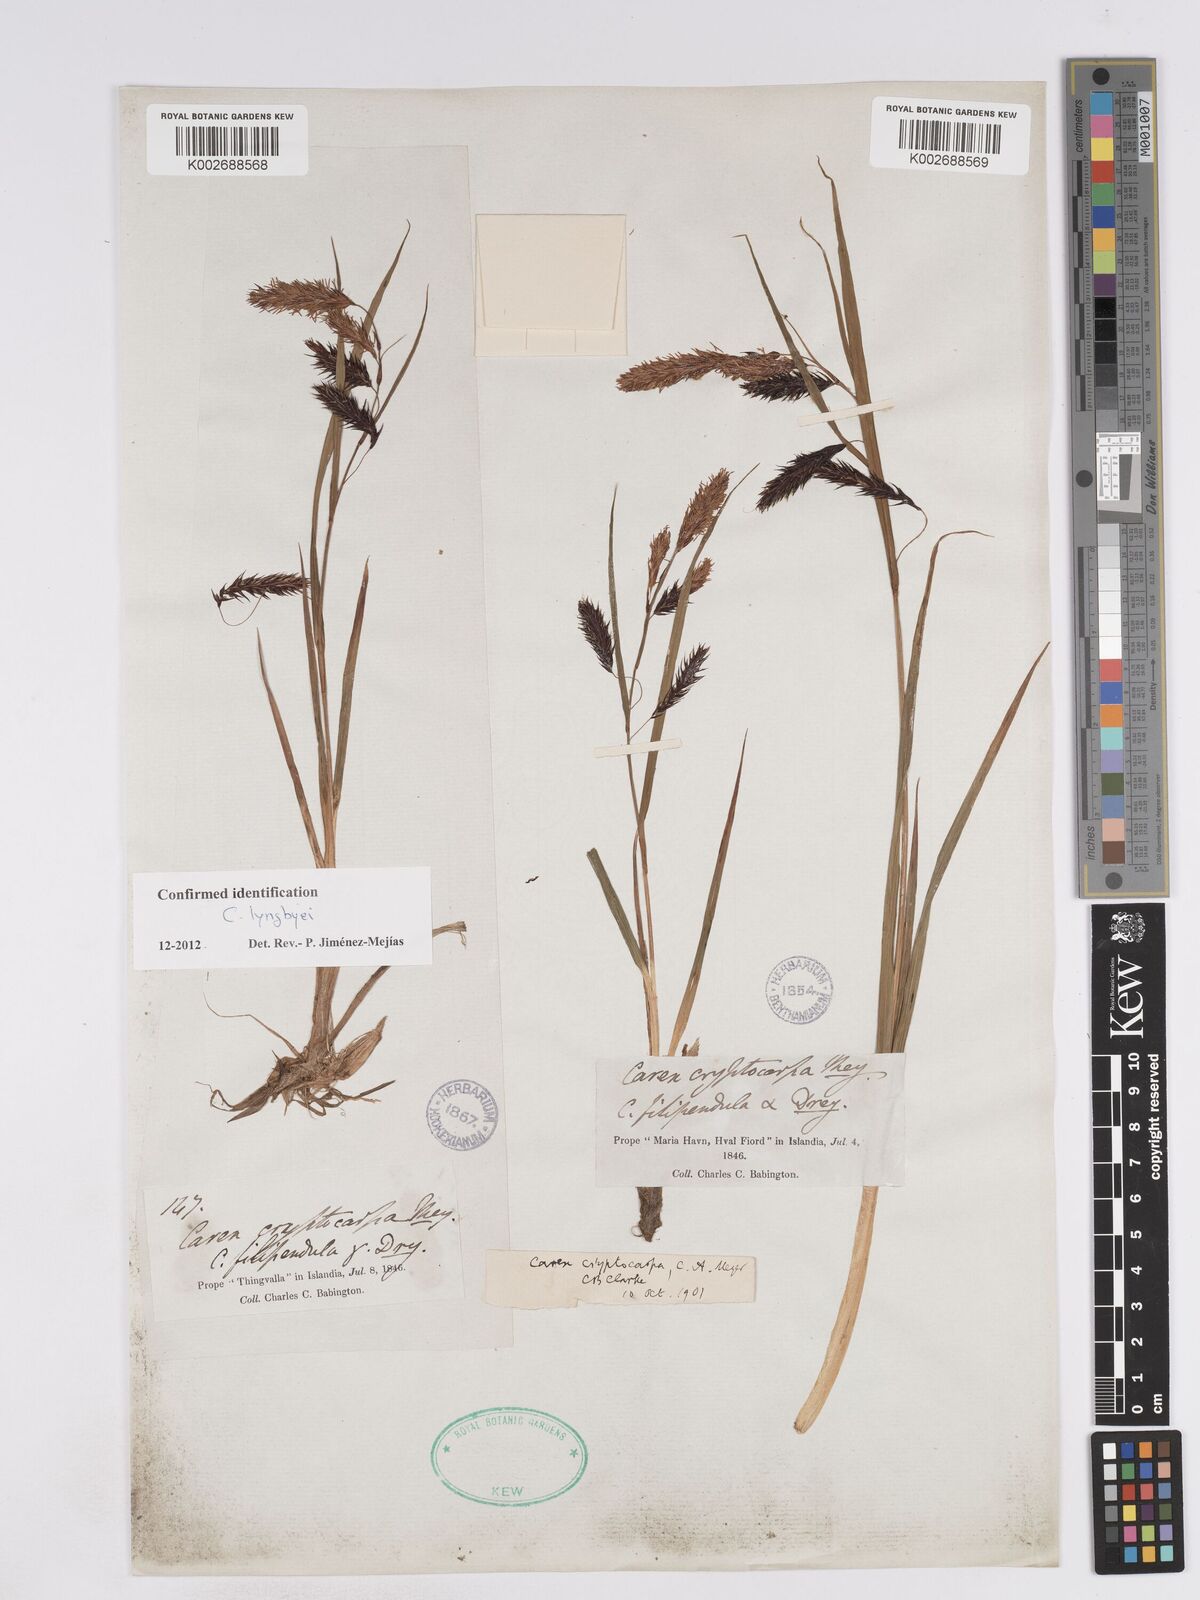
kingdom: Plantae
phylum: Tracheophyta
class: Liliopsida
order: Poales
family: Cyperaceae
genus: Carex
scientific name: Carex lyngbyei
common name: Lyngbye's sedge
